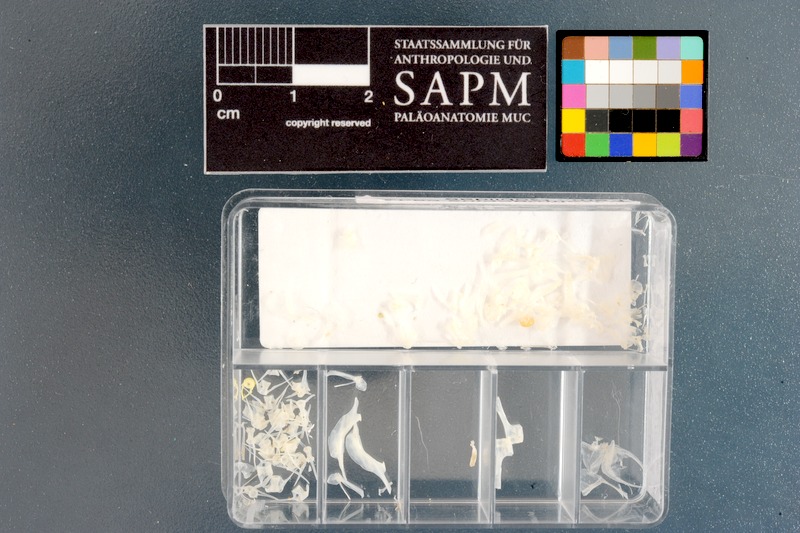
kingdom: Animalia
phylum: Chordata
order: Perciformes
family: Gobiidae
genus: Caffrogobius
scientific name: Caffrogobius caffer
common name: Banded goby
